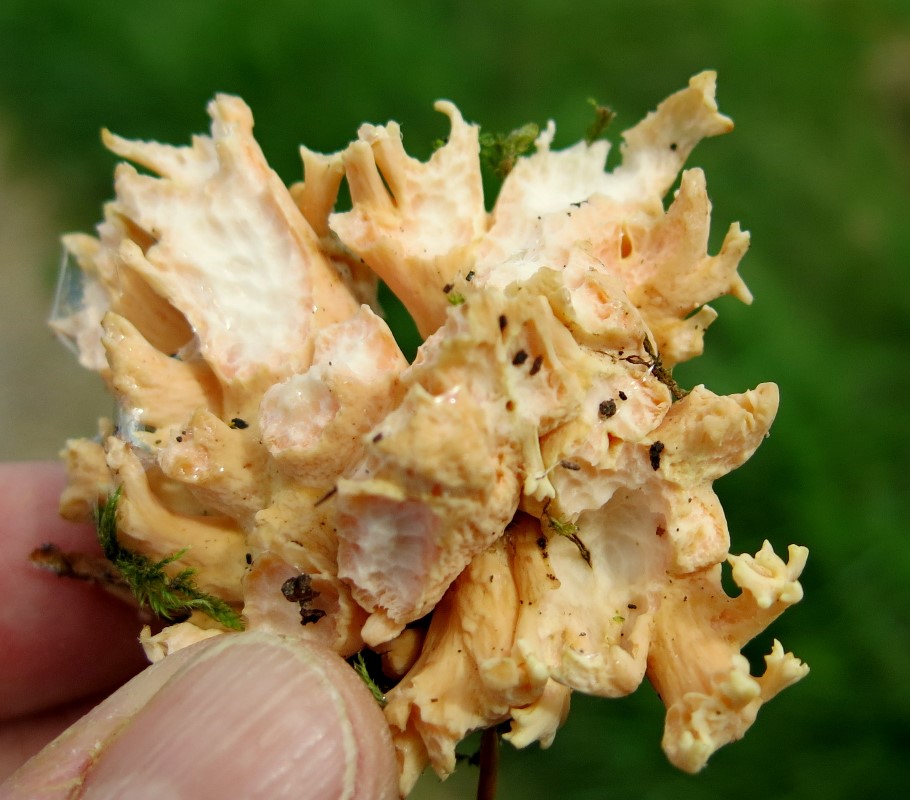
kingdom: Fungi
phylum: Basidiomycota
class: Agaricomycetes
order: Gomphales
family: Gomphaceae
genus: Ramaria
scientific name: Ramaria fagetorum
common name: abrikos-koralsvamp
